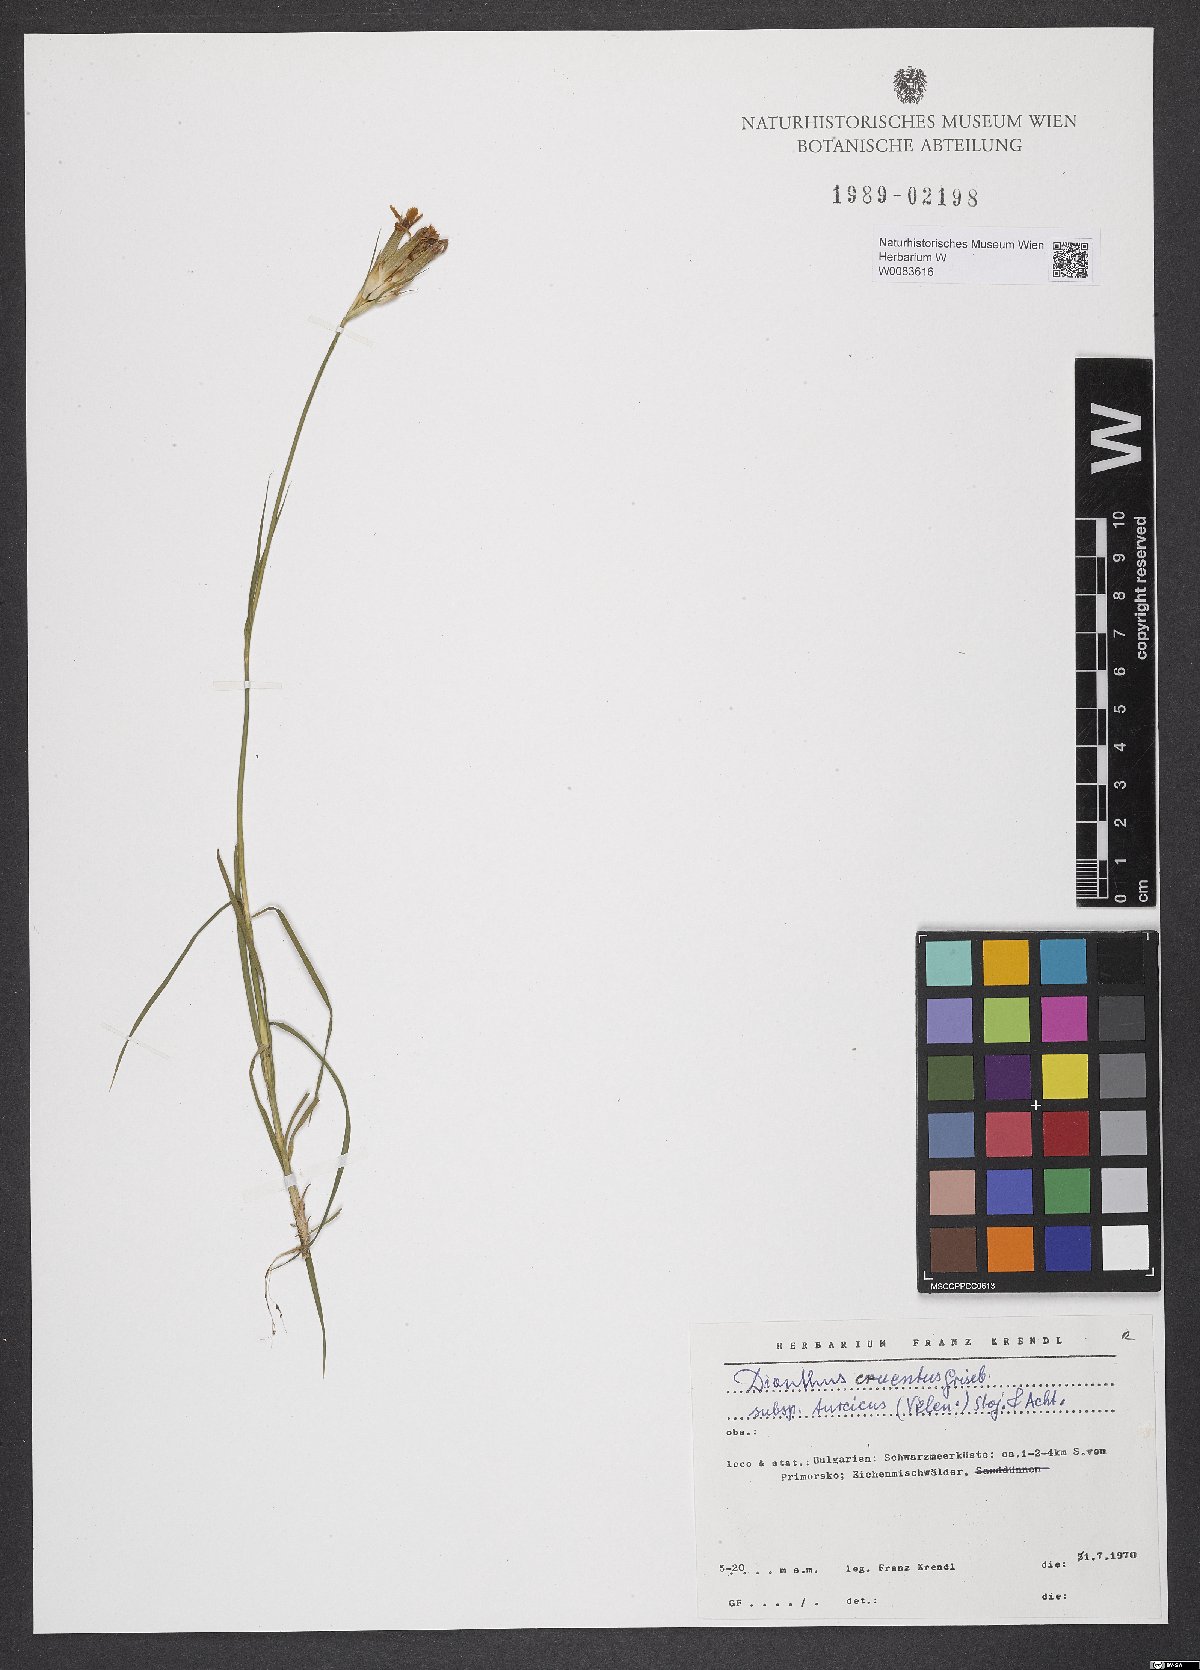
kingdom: Plantae
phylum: Tracheophyta
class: Magnoliopsida
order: Caryophyllales
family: Caryophyllaceae
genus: Dianthus
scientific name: Dianthus cruentus
